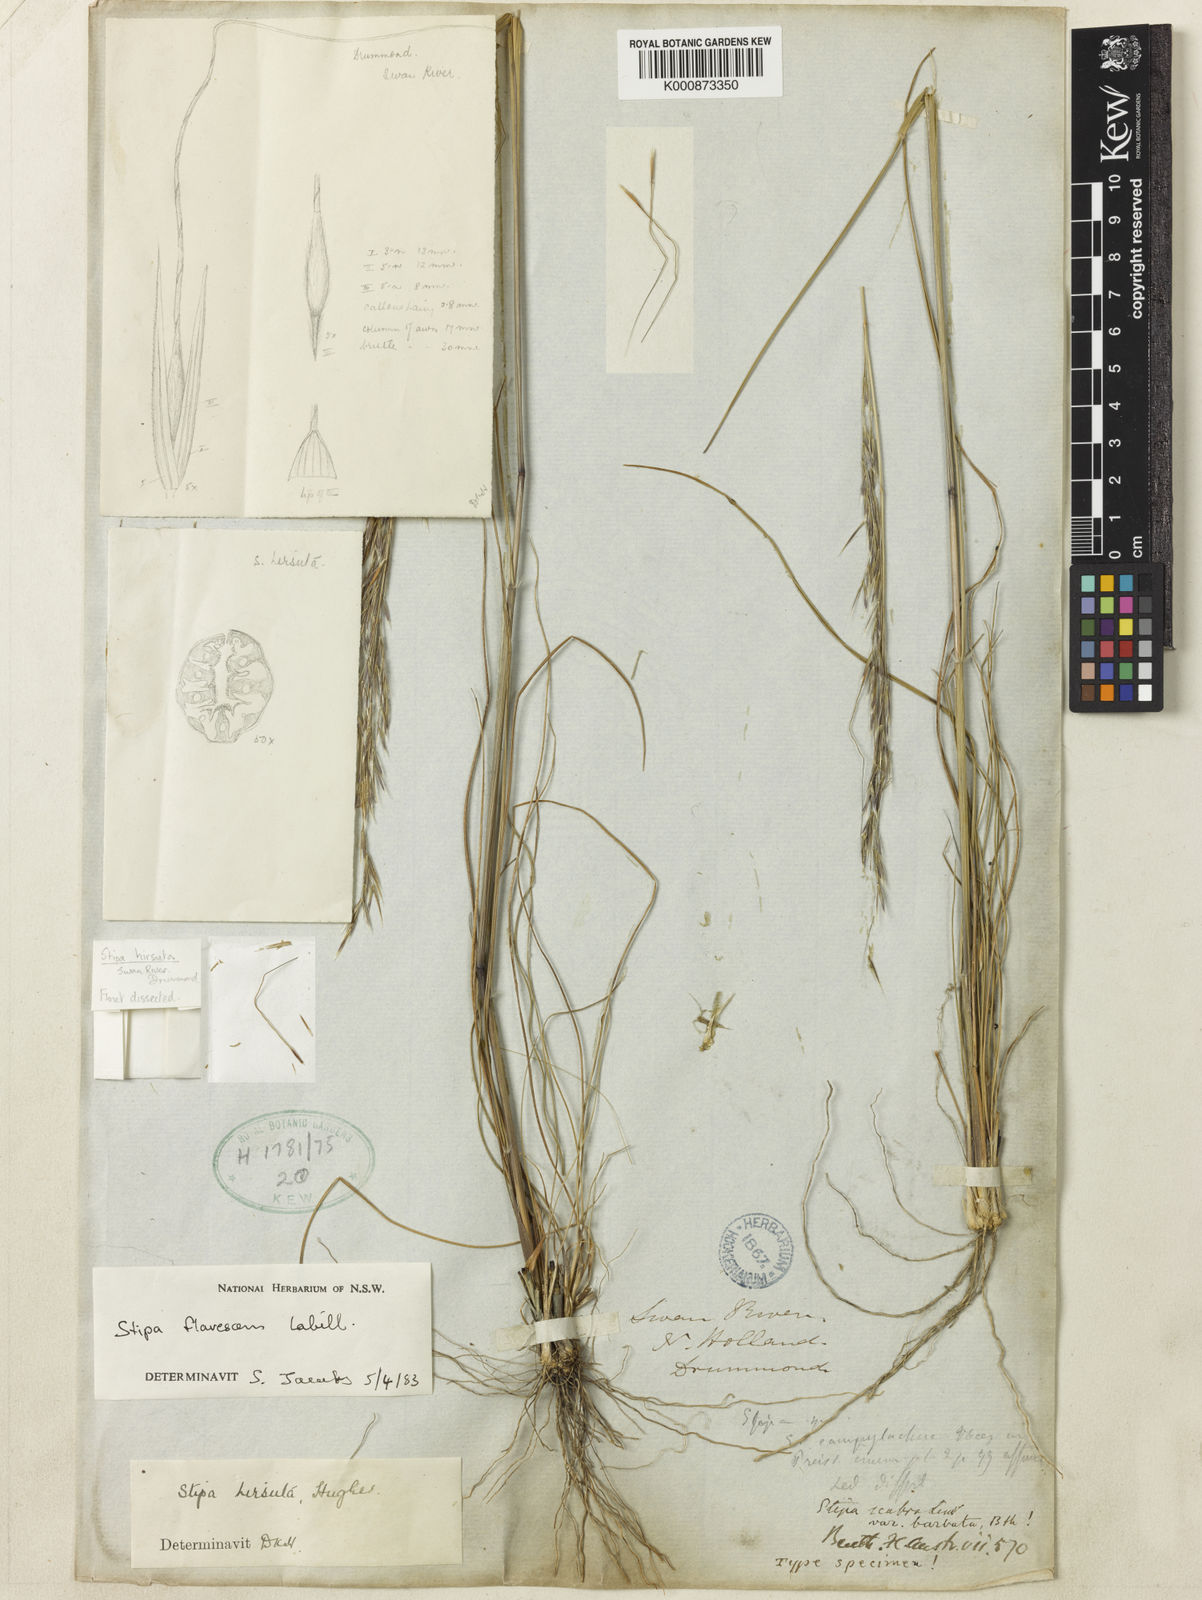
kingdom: Plantae
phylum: Tracheophyta
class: Liliopsida
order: Poales
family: Poaceae
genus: Austrostipa
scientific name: Austrostipa flavescens
